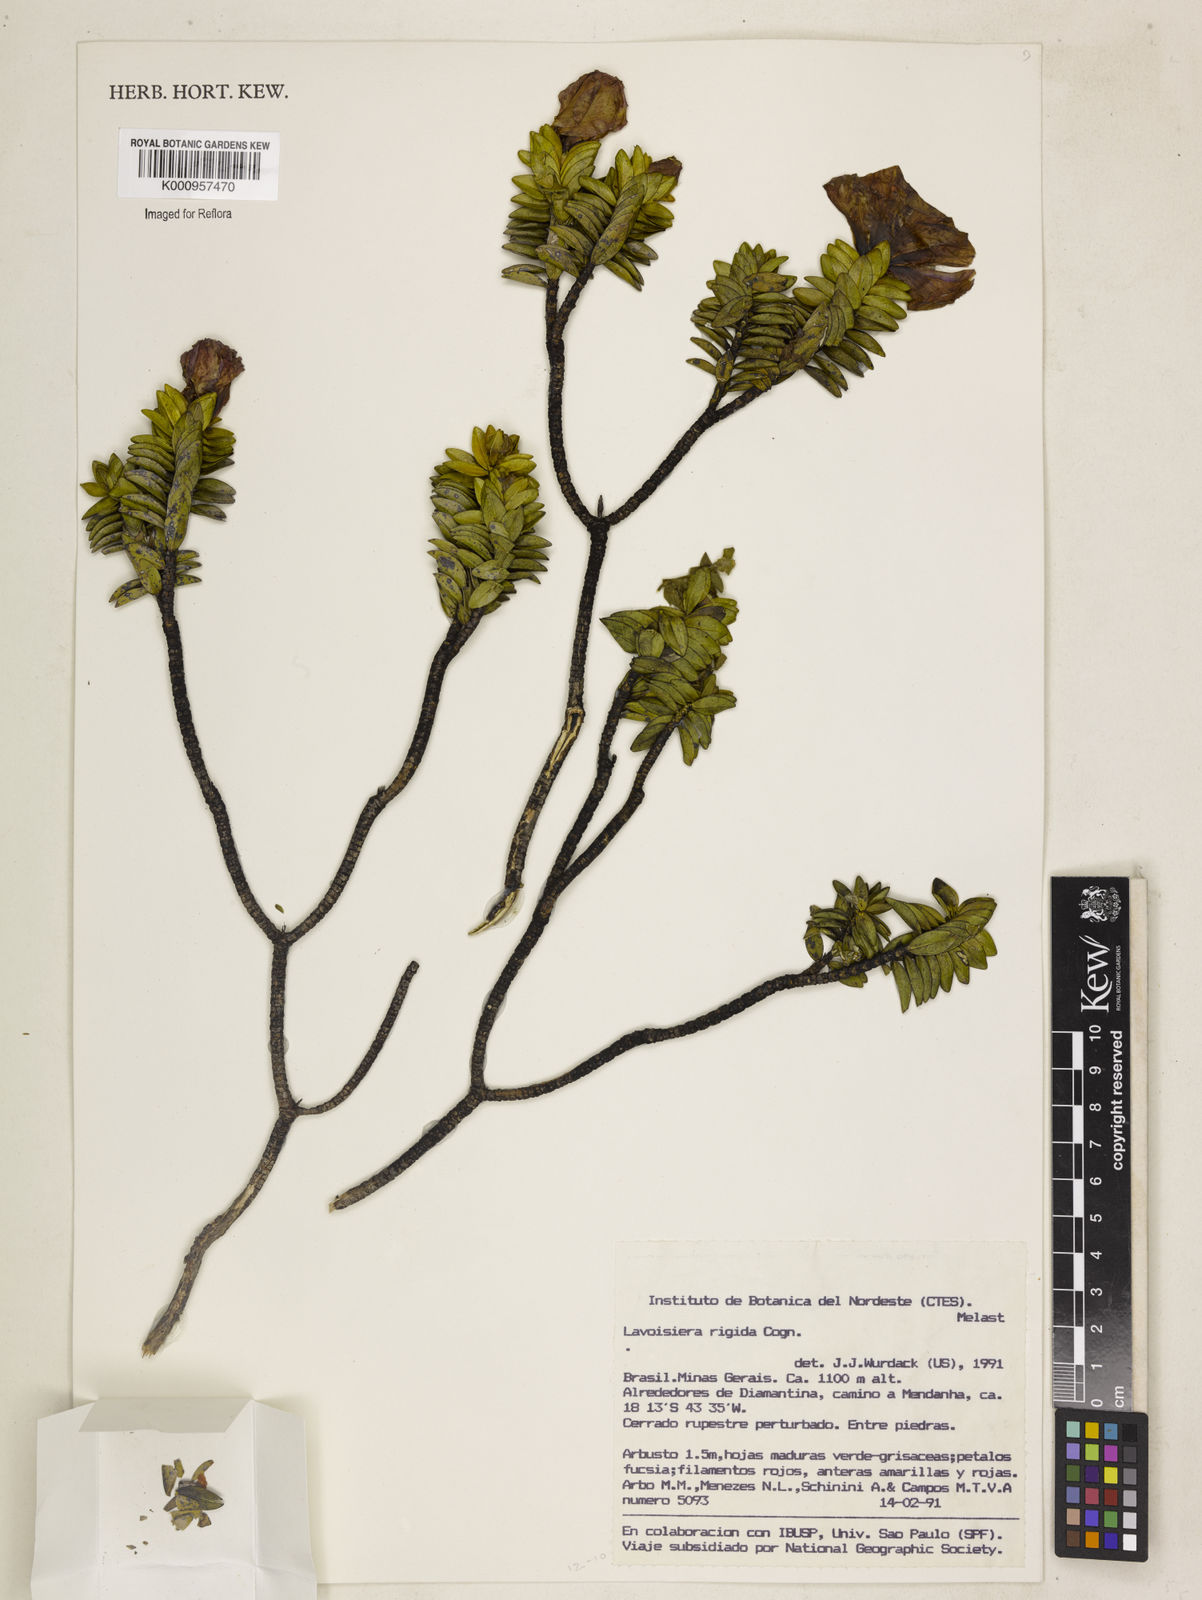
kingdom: Plantae
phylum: Tracheophyta
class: Magnoliopsida
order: Myrtales
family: Melastomataceae
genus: Microlicia
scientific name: Microlicia rigida
